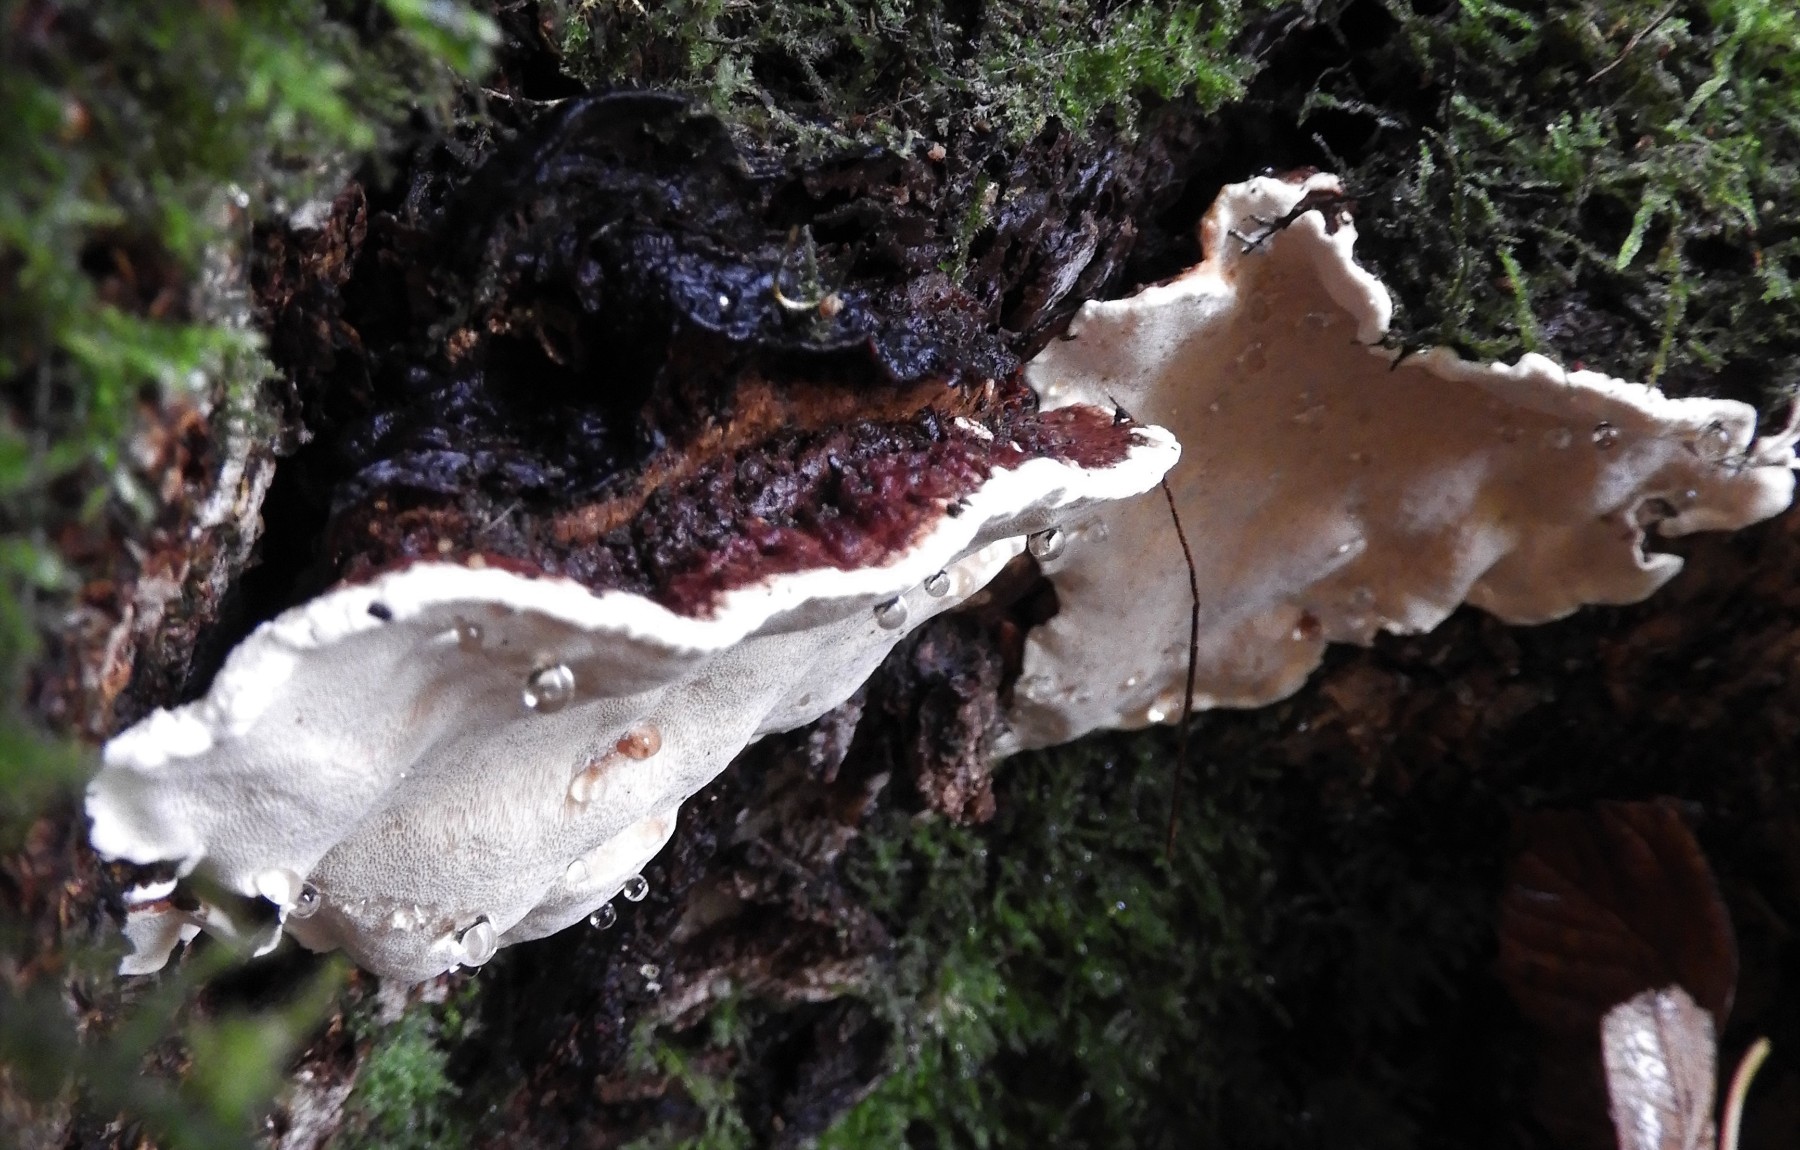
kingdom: Fungi
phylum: Basidiomycota
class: Agaricomycetes
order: Russulales
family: Bondarzewiaceae
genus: Heterobasidion
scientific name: Heterobasidion annosum
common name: almindelig rodfordærver
